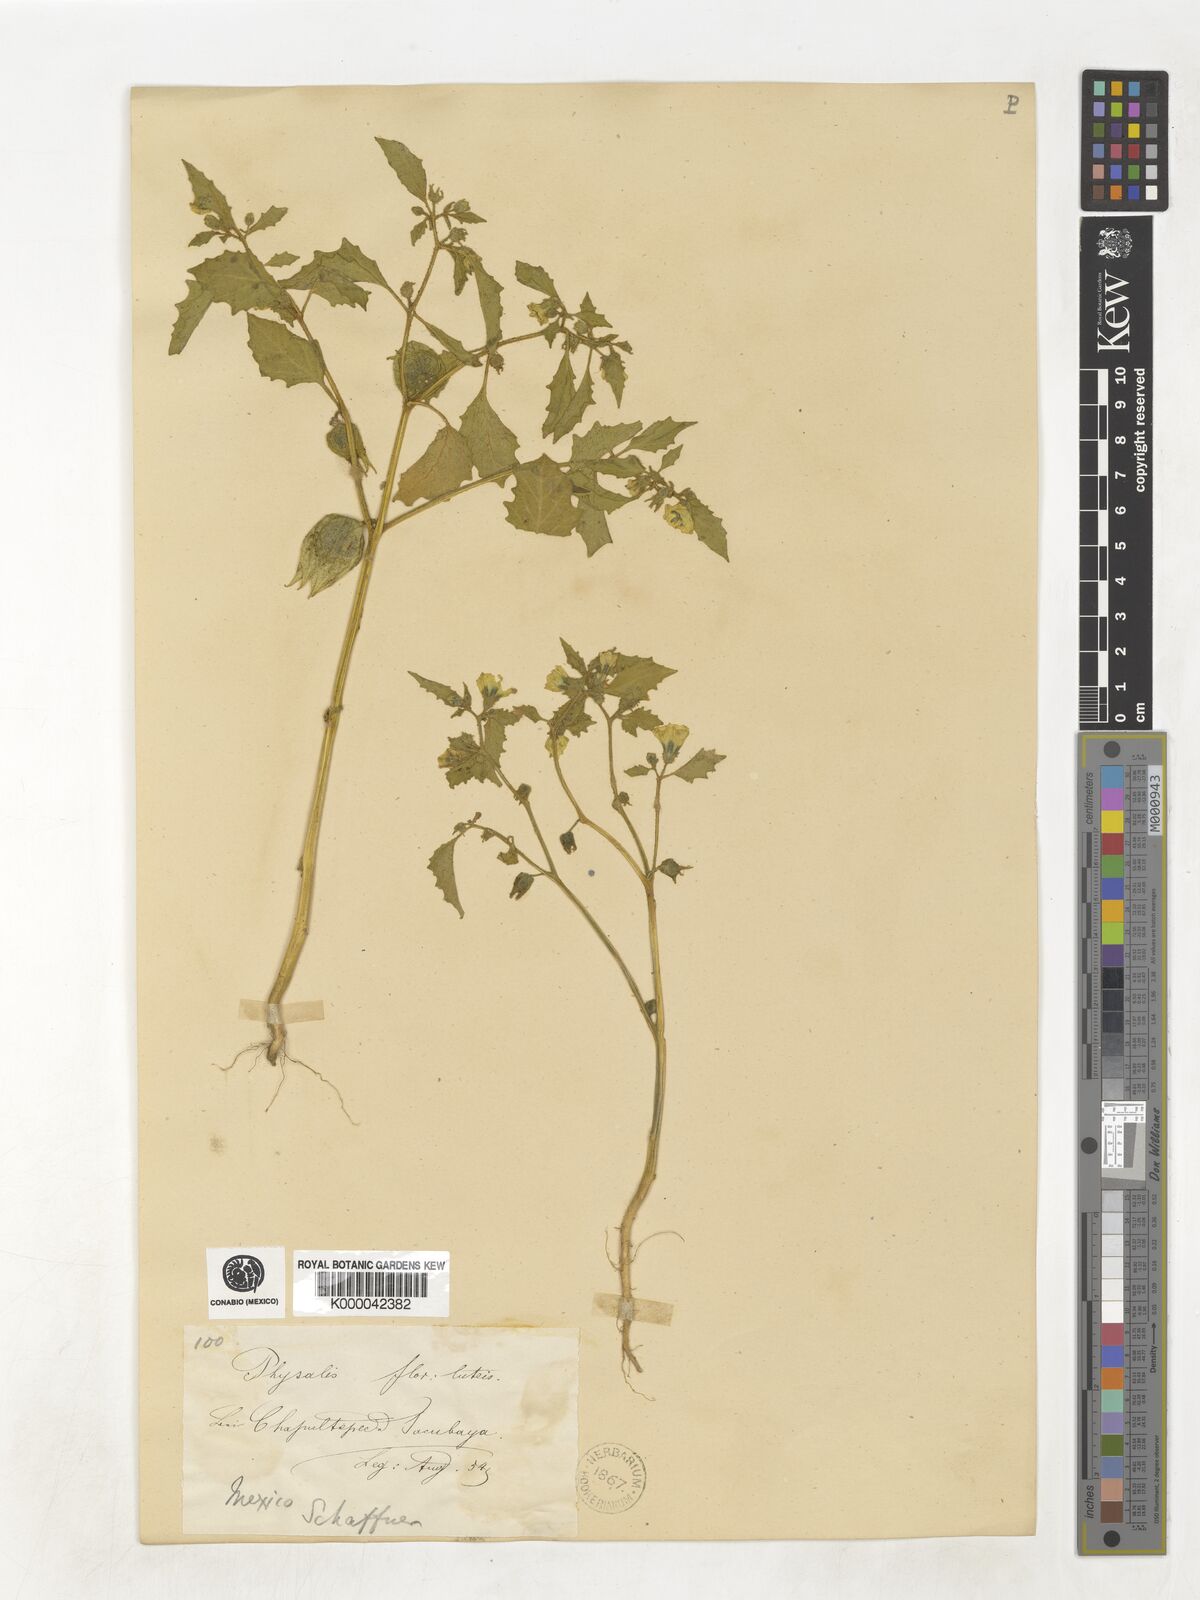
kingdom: Plantae
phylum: Tracheophyta
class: Magnoliopsida
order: Solanales
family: Solanaceae
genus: Physalis
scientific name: Physalis pubescens
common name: Downy ground-cherry
